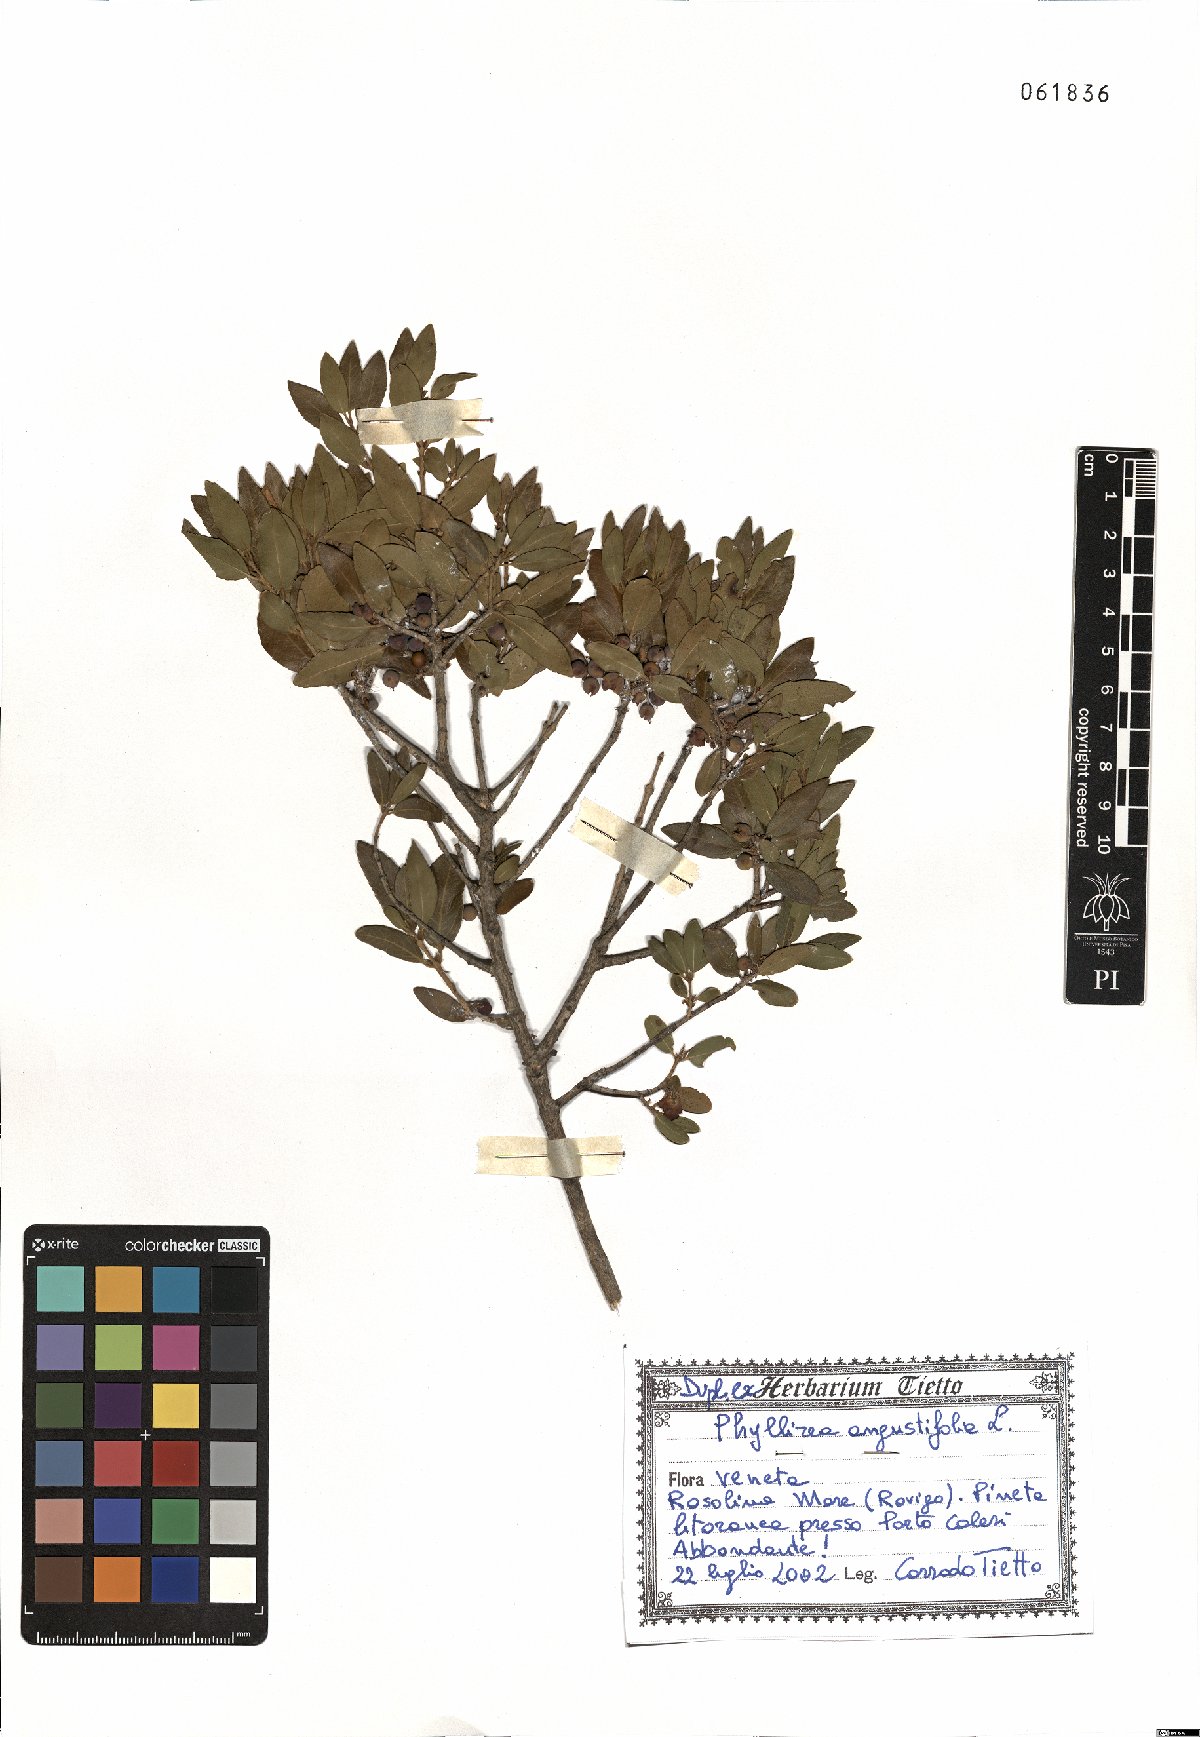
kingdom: Plantae
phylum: Tracheophyta
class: Magnoliopsida
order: Lamiales
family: Oleaceae
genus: Phillyrea
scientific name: Phillyrea angustifolia
